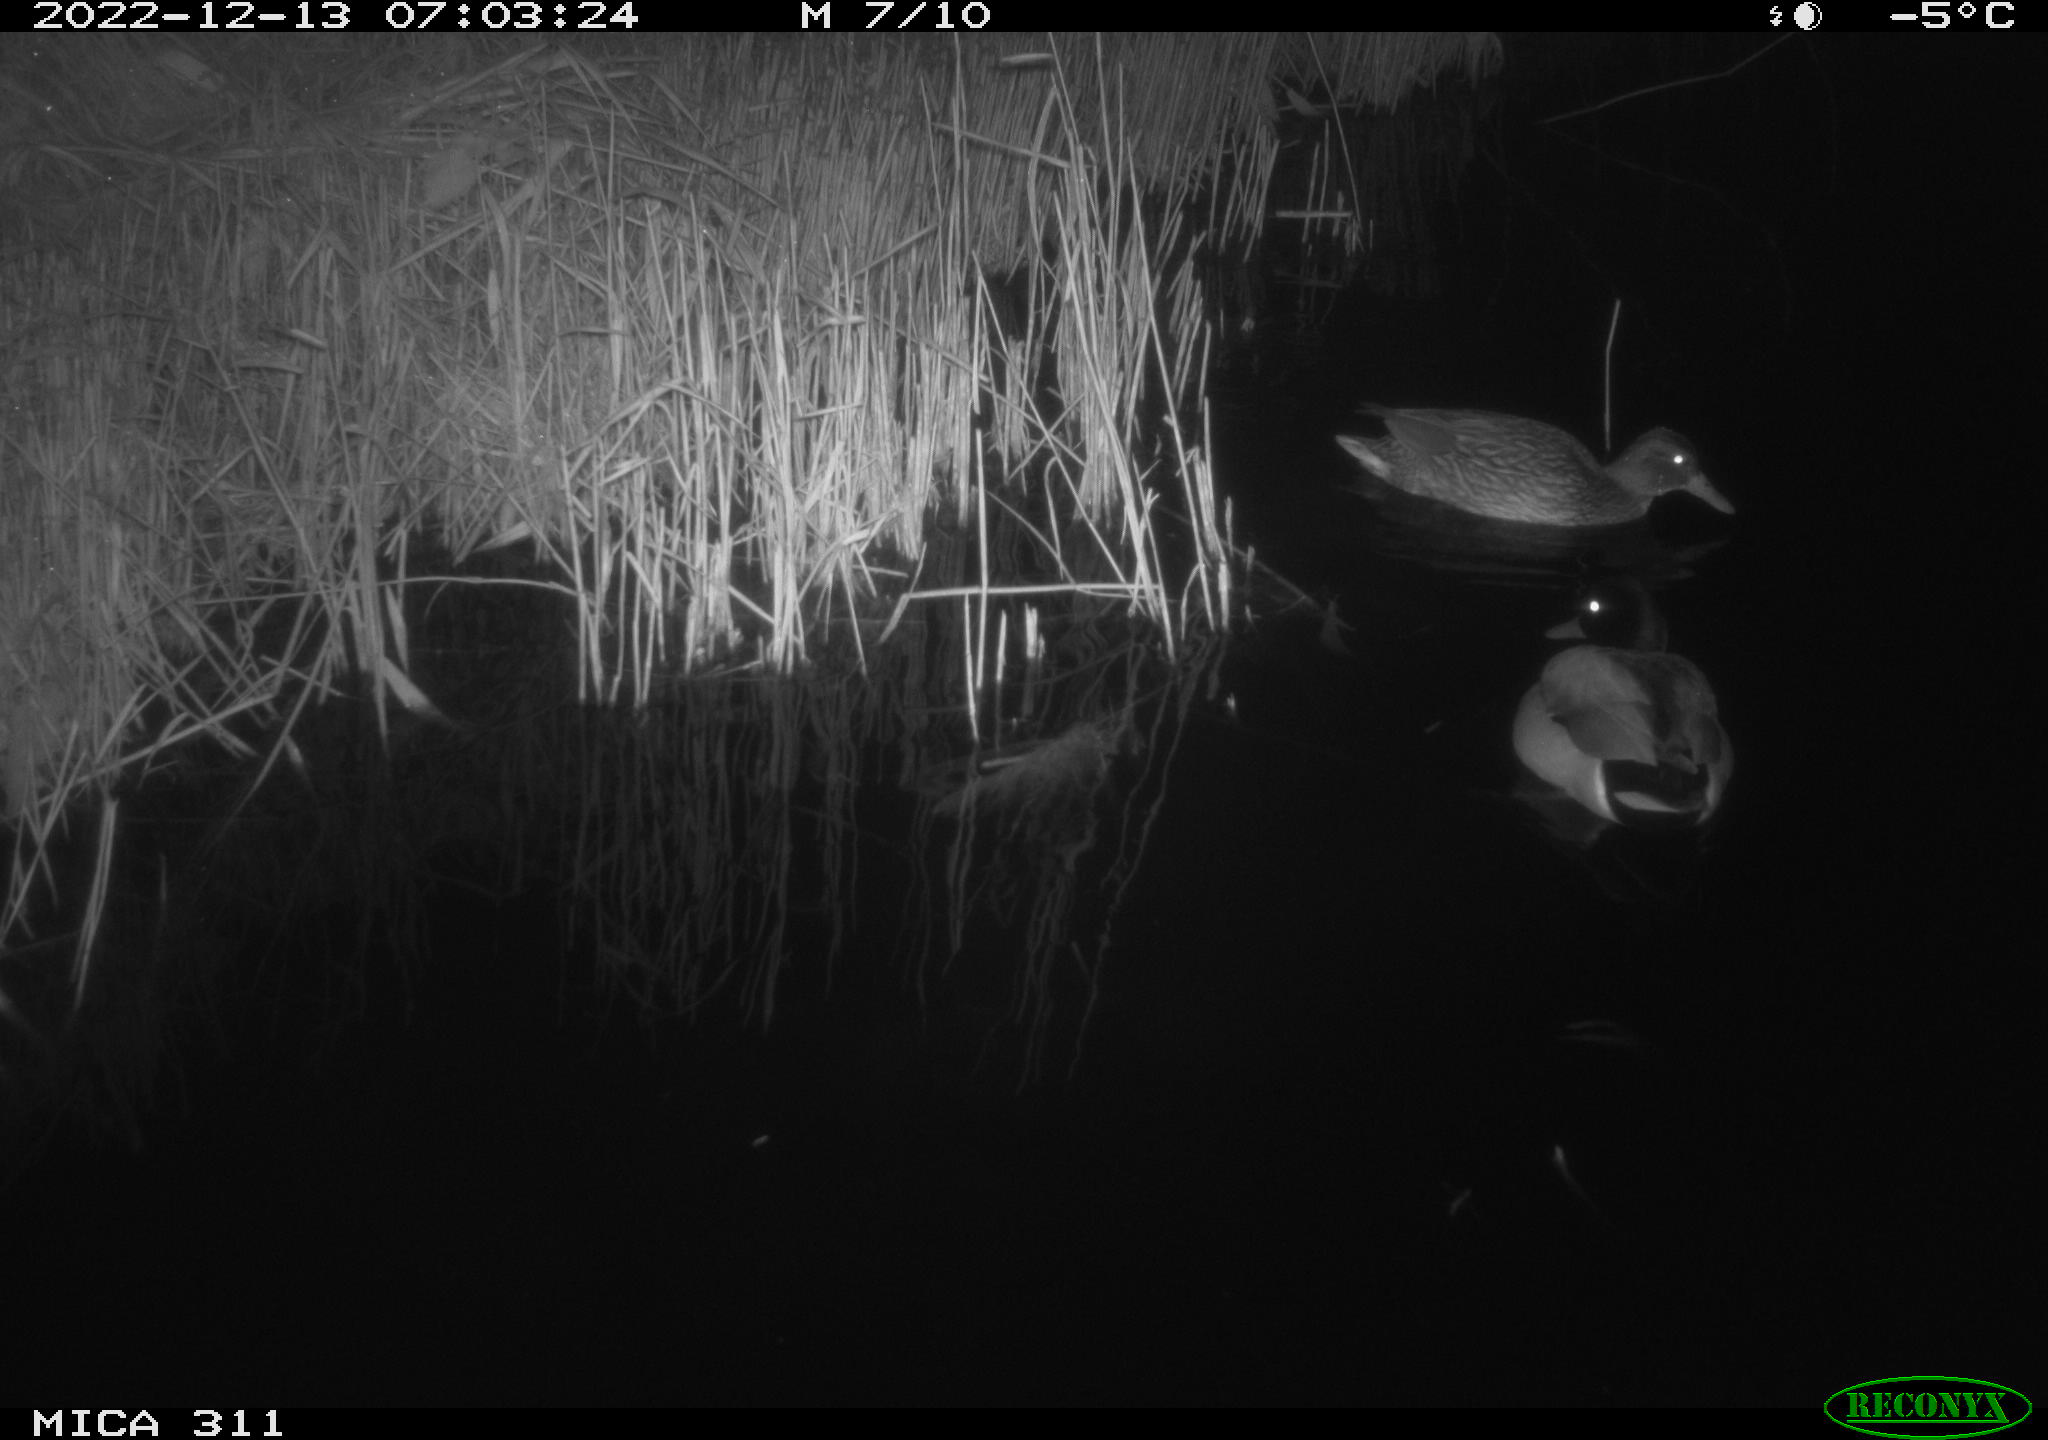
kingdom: Animalia
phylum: Chordata
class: Aves
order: Anseriformes
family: Anatidae
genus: Anas
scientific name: Anas
